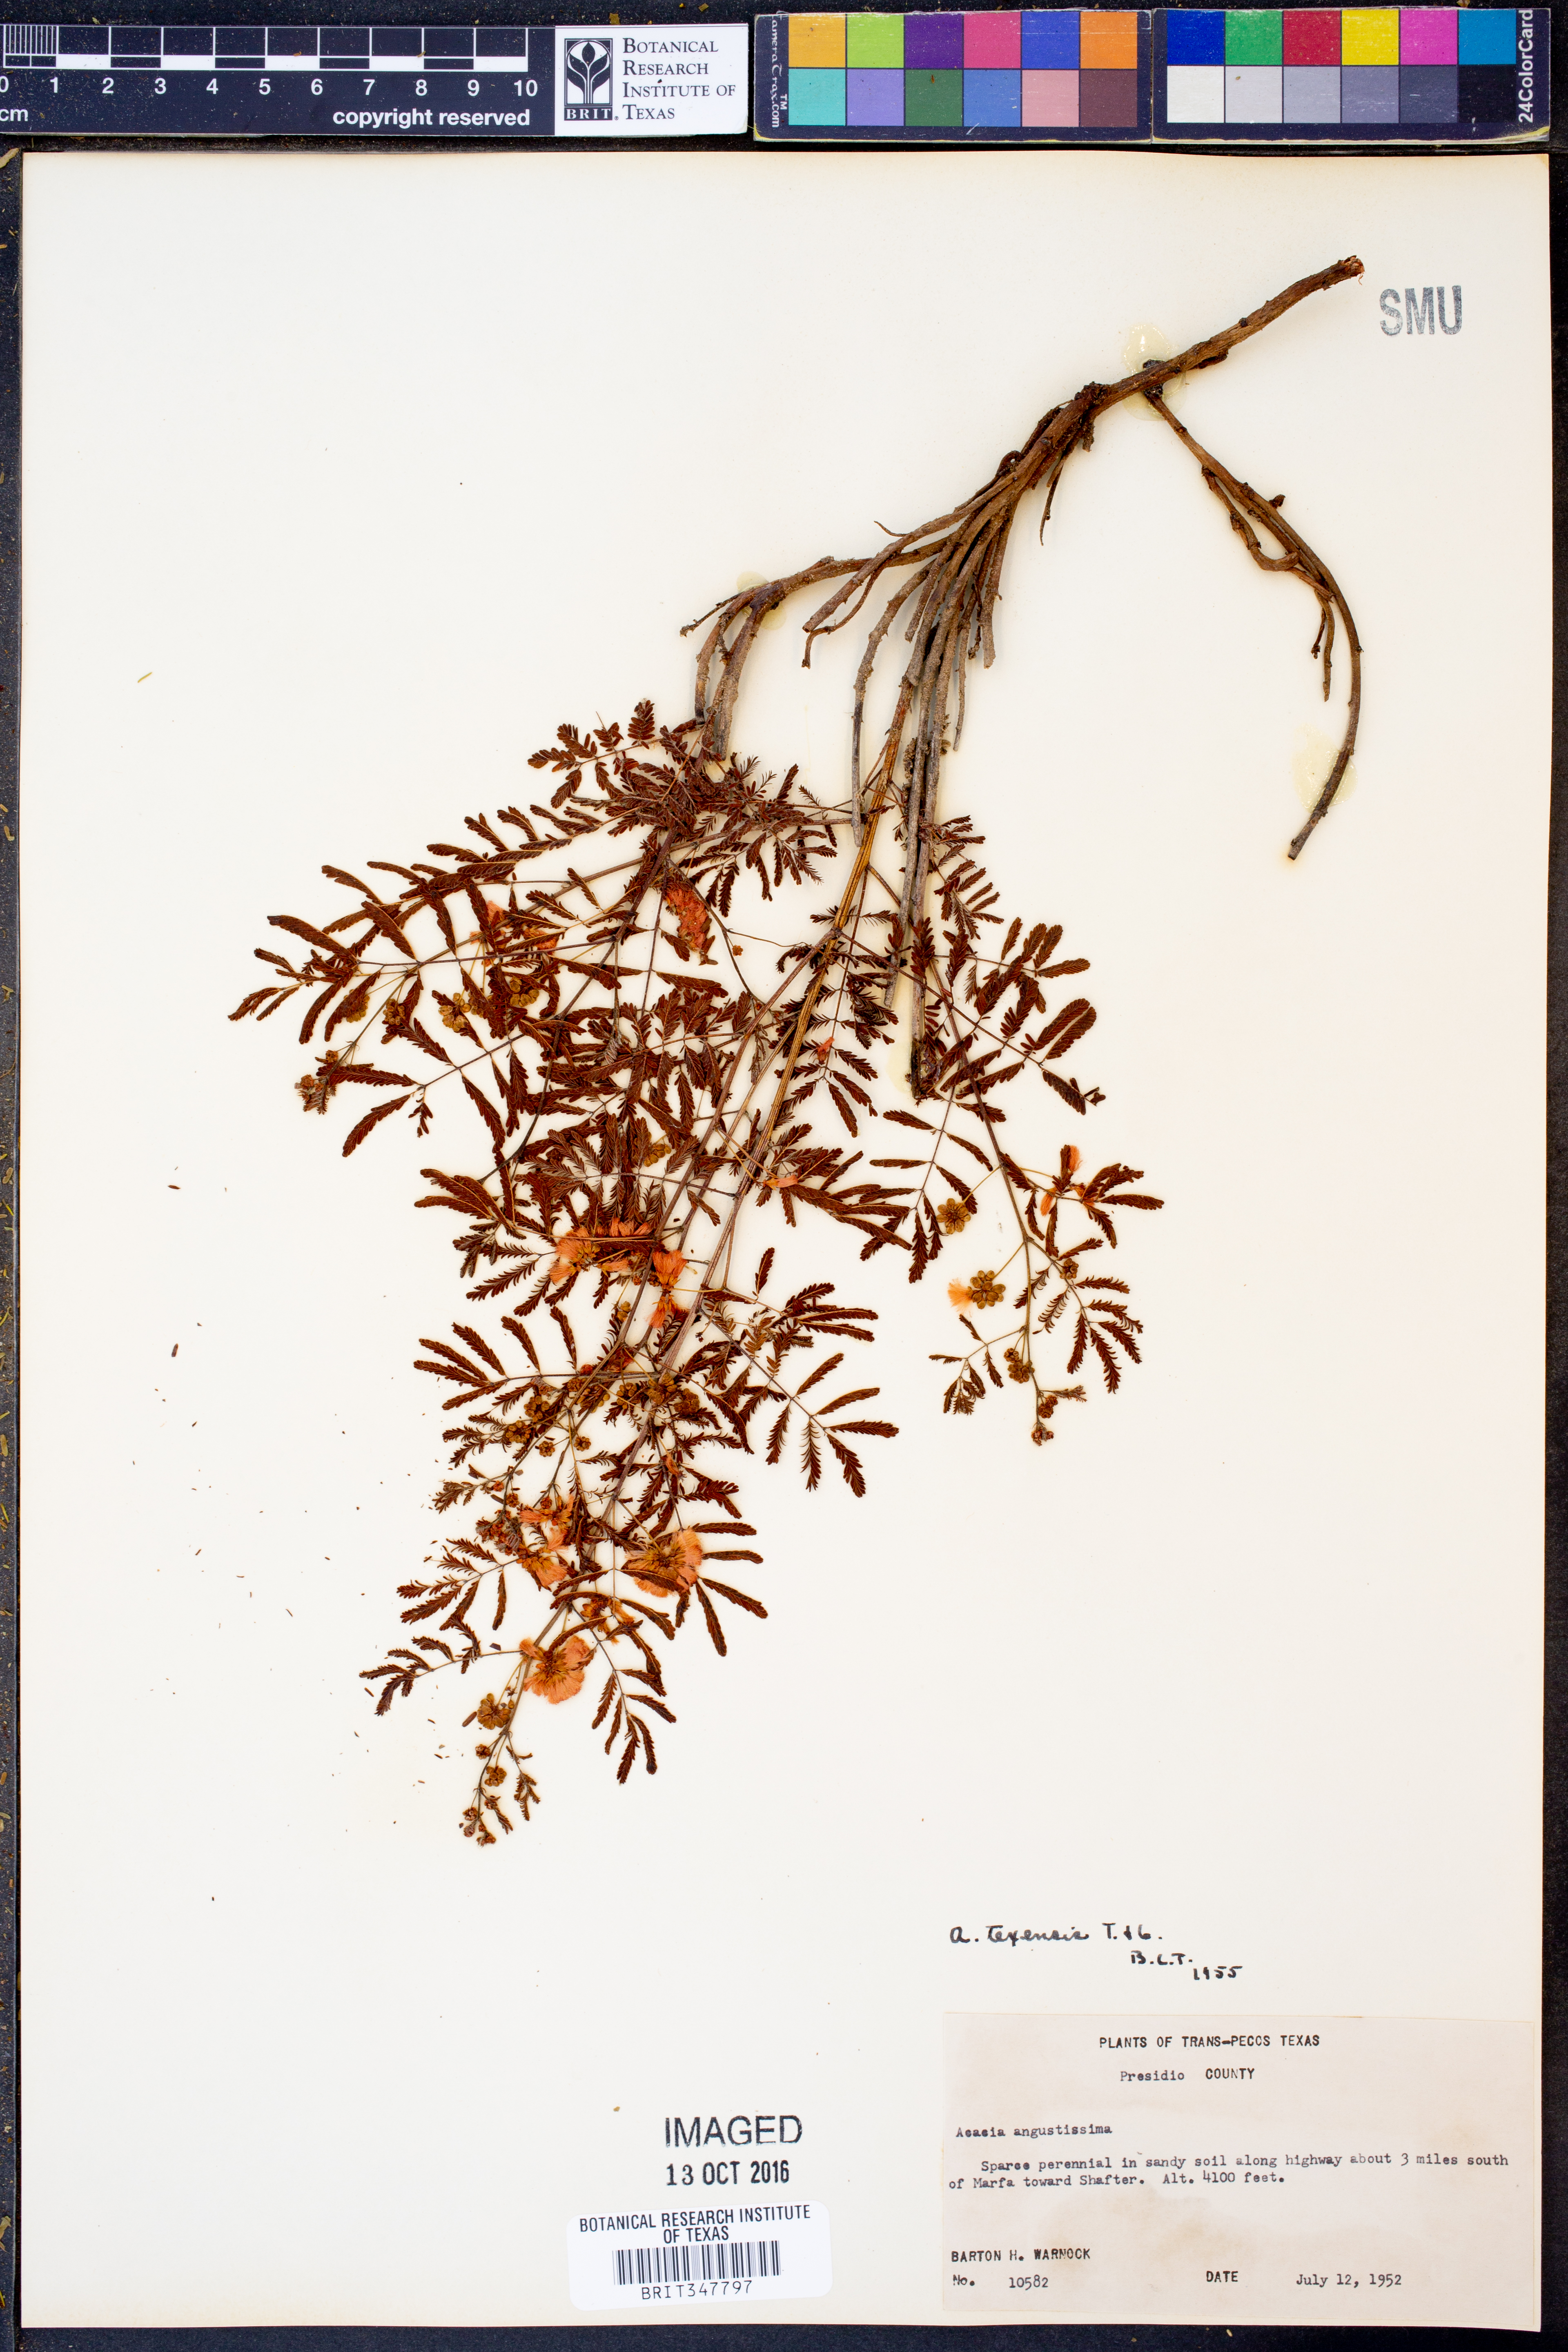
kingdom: Plantae
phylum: Tracheophyta
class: Magnoliopsida
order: Fabales
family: Fabaceae
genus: Acaciella
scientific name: Acaciella angustissima
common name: Prairie acacia
